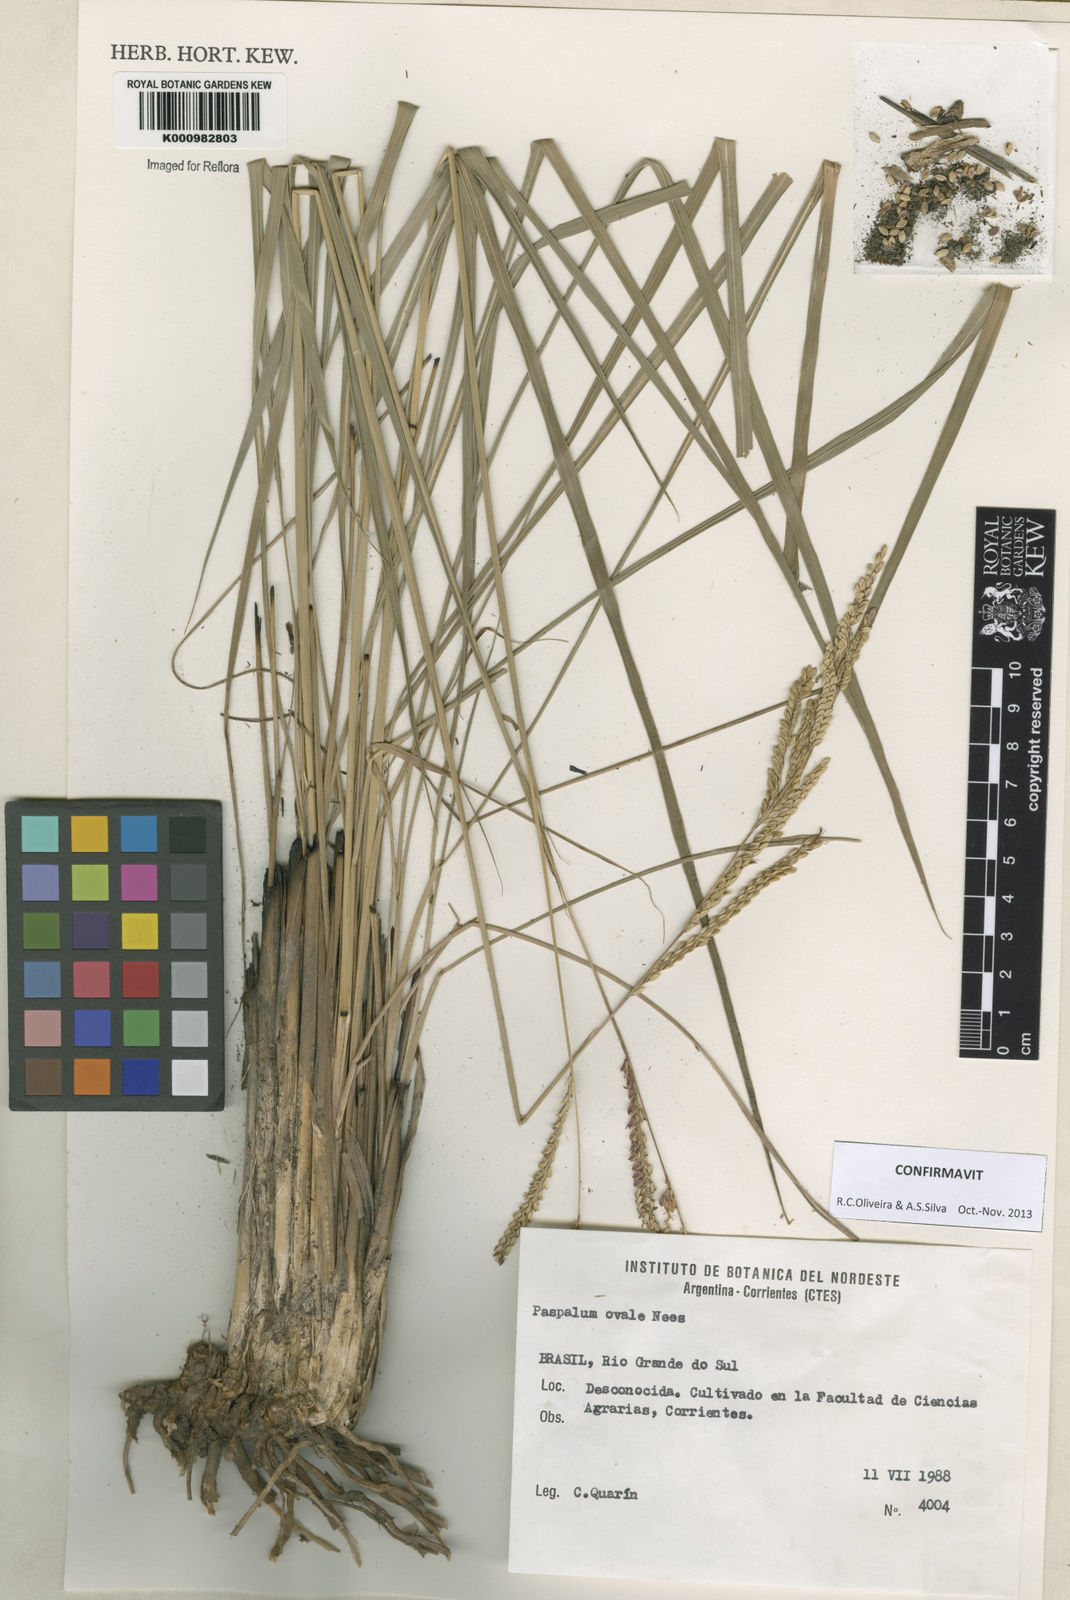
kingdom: Plantae
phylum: Tracheophyta
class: Liliopsida
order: Poales
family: Poaceae
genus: Paspalum
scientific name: Paspalum ovale
